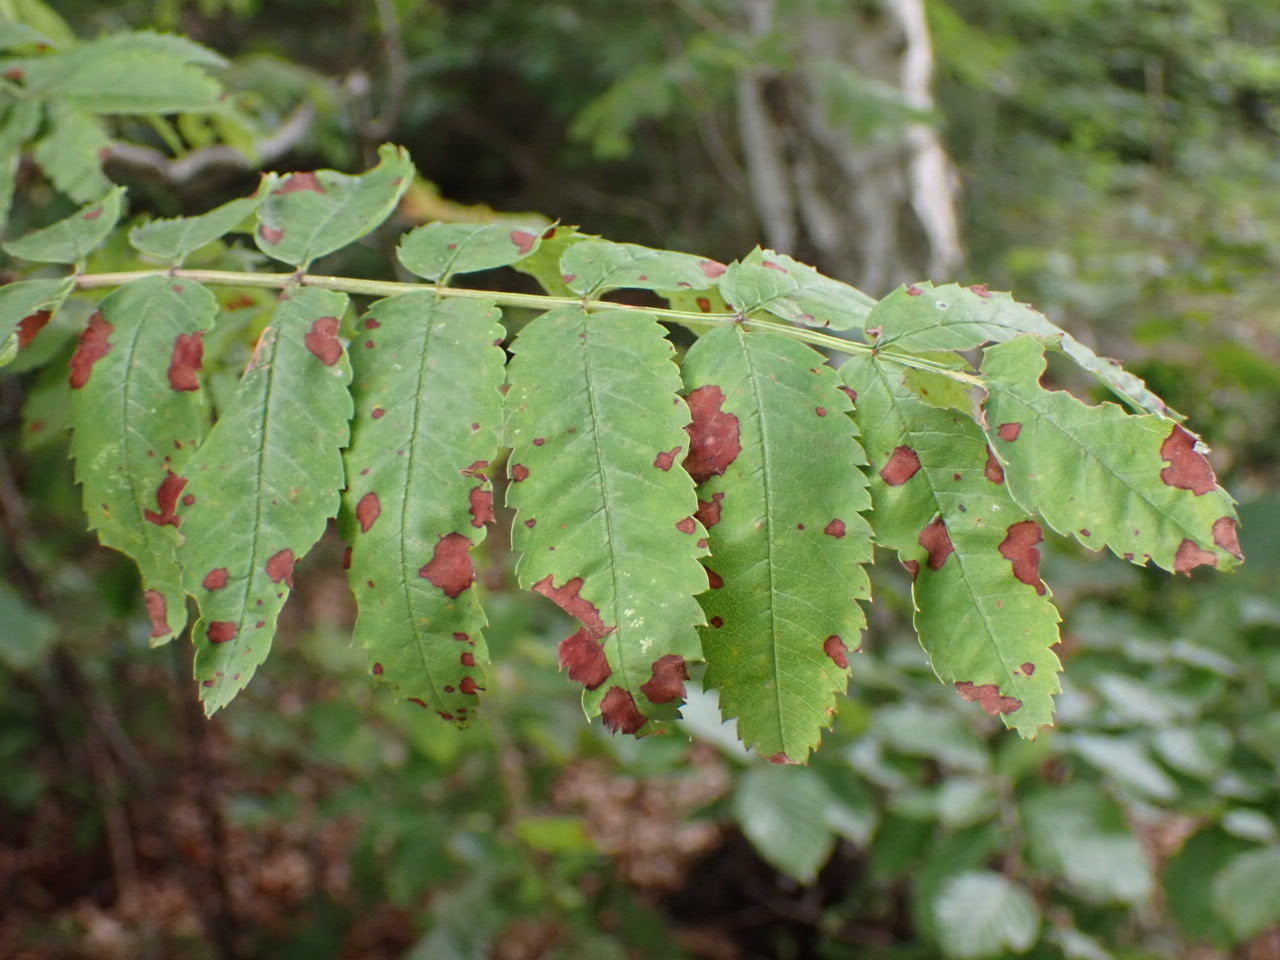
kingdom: Fungi
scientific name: Fungi
